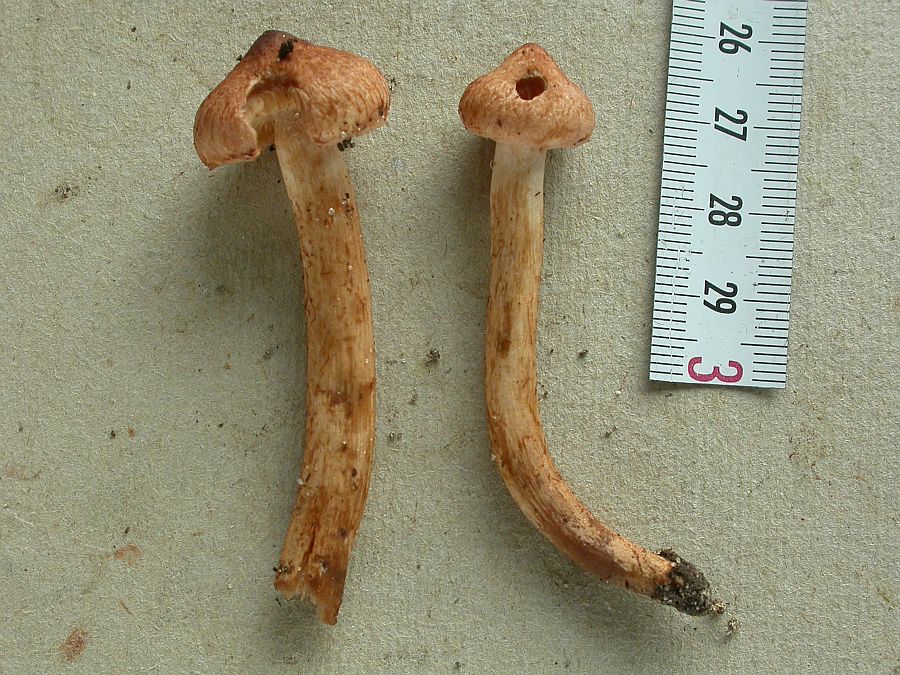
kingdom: Fungi
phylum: Basidiomycota
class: Agaricomycetes
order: Agaricales
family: Tricholomataceae
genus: Tricholoma
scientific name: Tricholoma vaccinum
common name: ko-ridderhat
